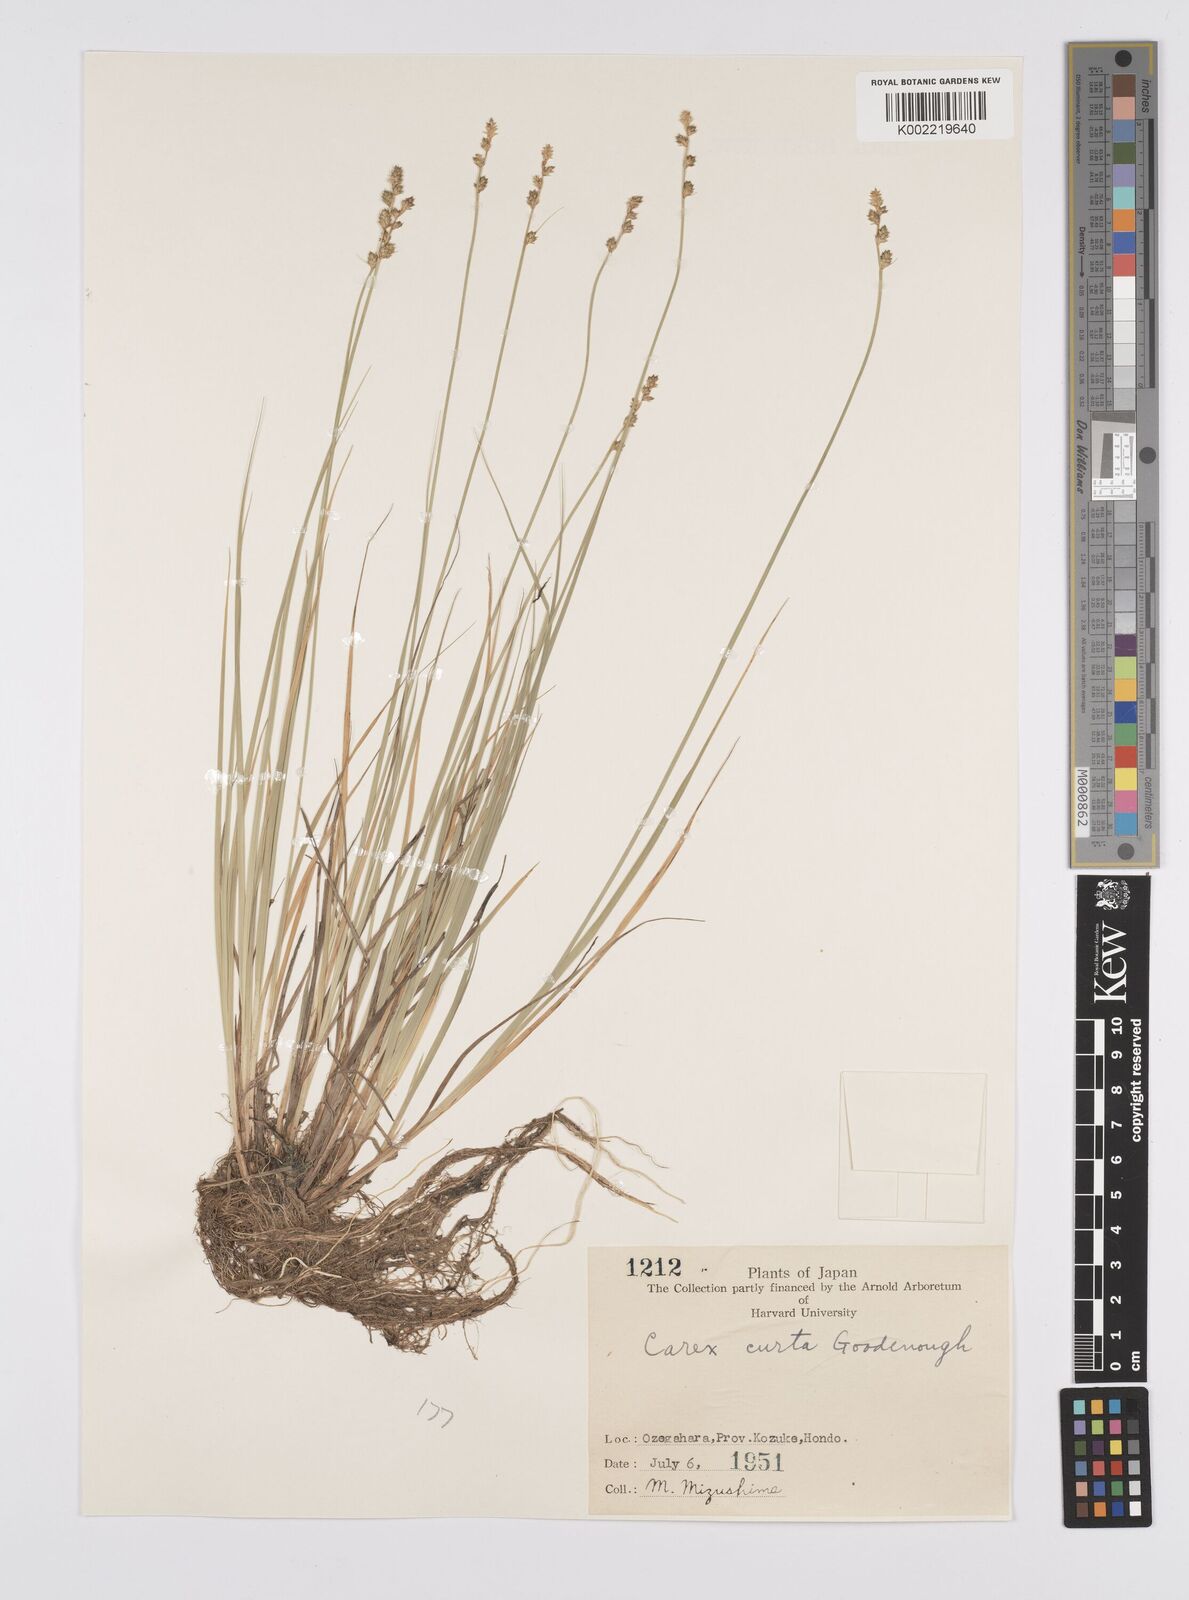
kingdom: Plantae
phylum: Tracheophyta
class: Liliopsida
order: Poales
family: Cyperaceae
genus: Carex
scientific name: Carex canescens
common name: White sedge
